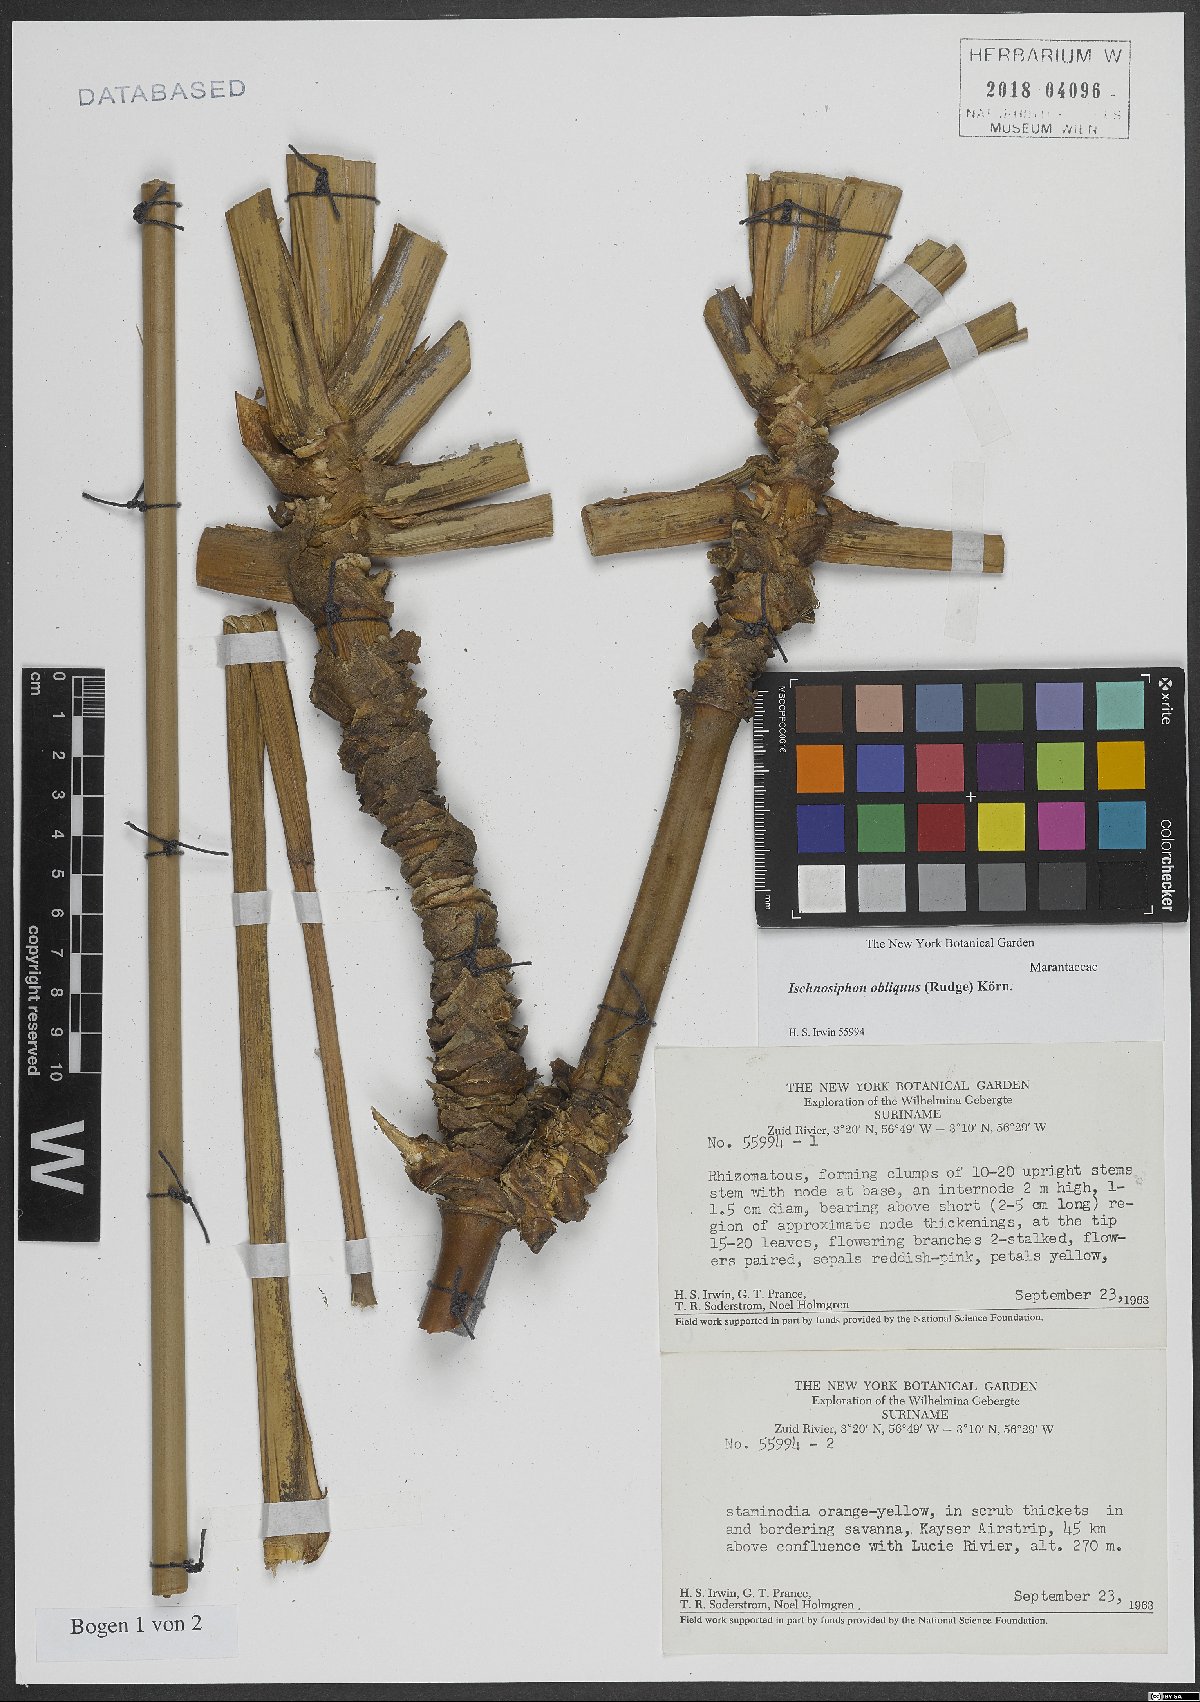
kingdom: Plantae
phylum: Tracheophyta
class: Liliopsida
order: Zingiberales
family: Marantaceae
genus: Ischnosiphon
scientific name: Ischnosiphon obliquus
